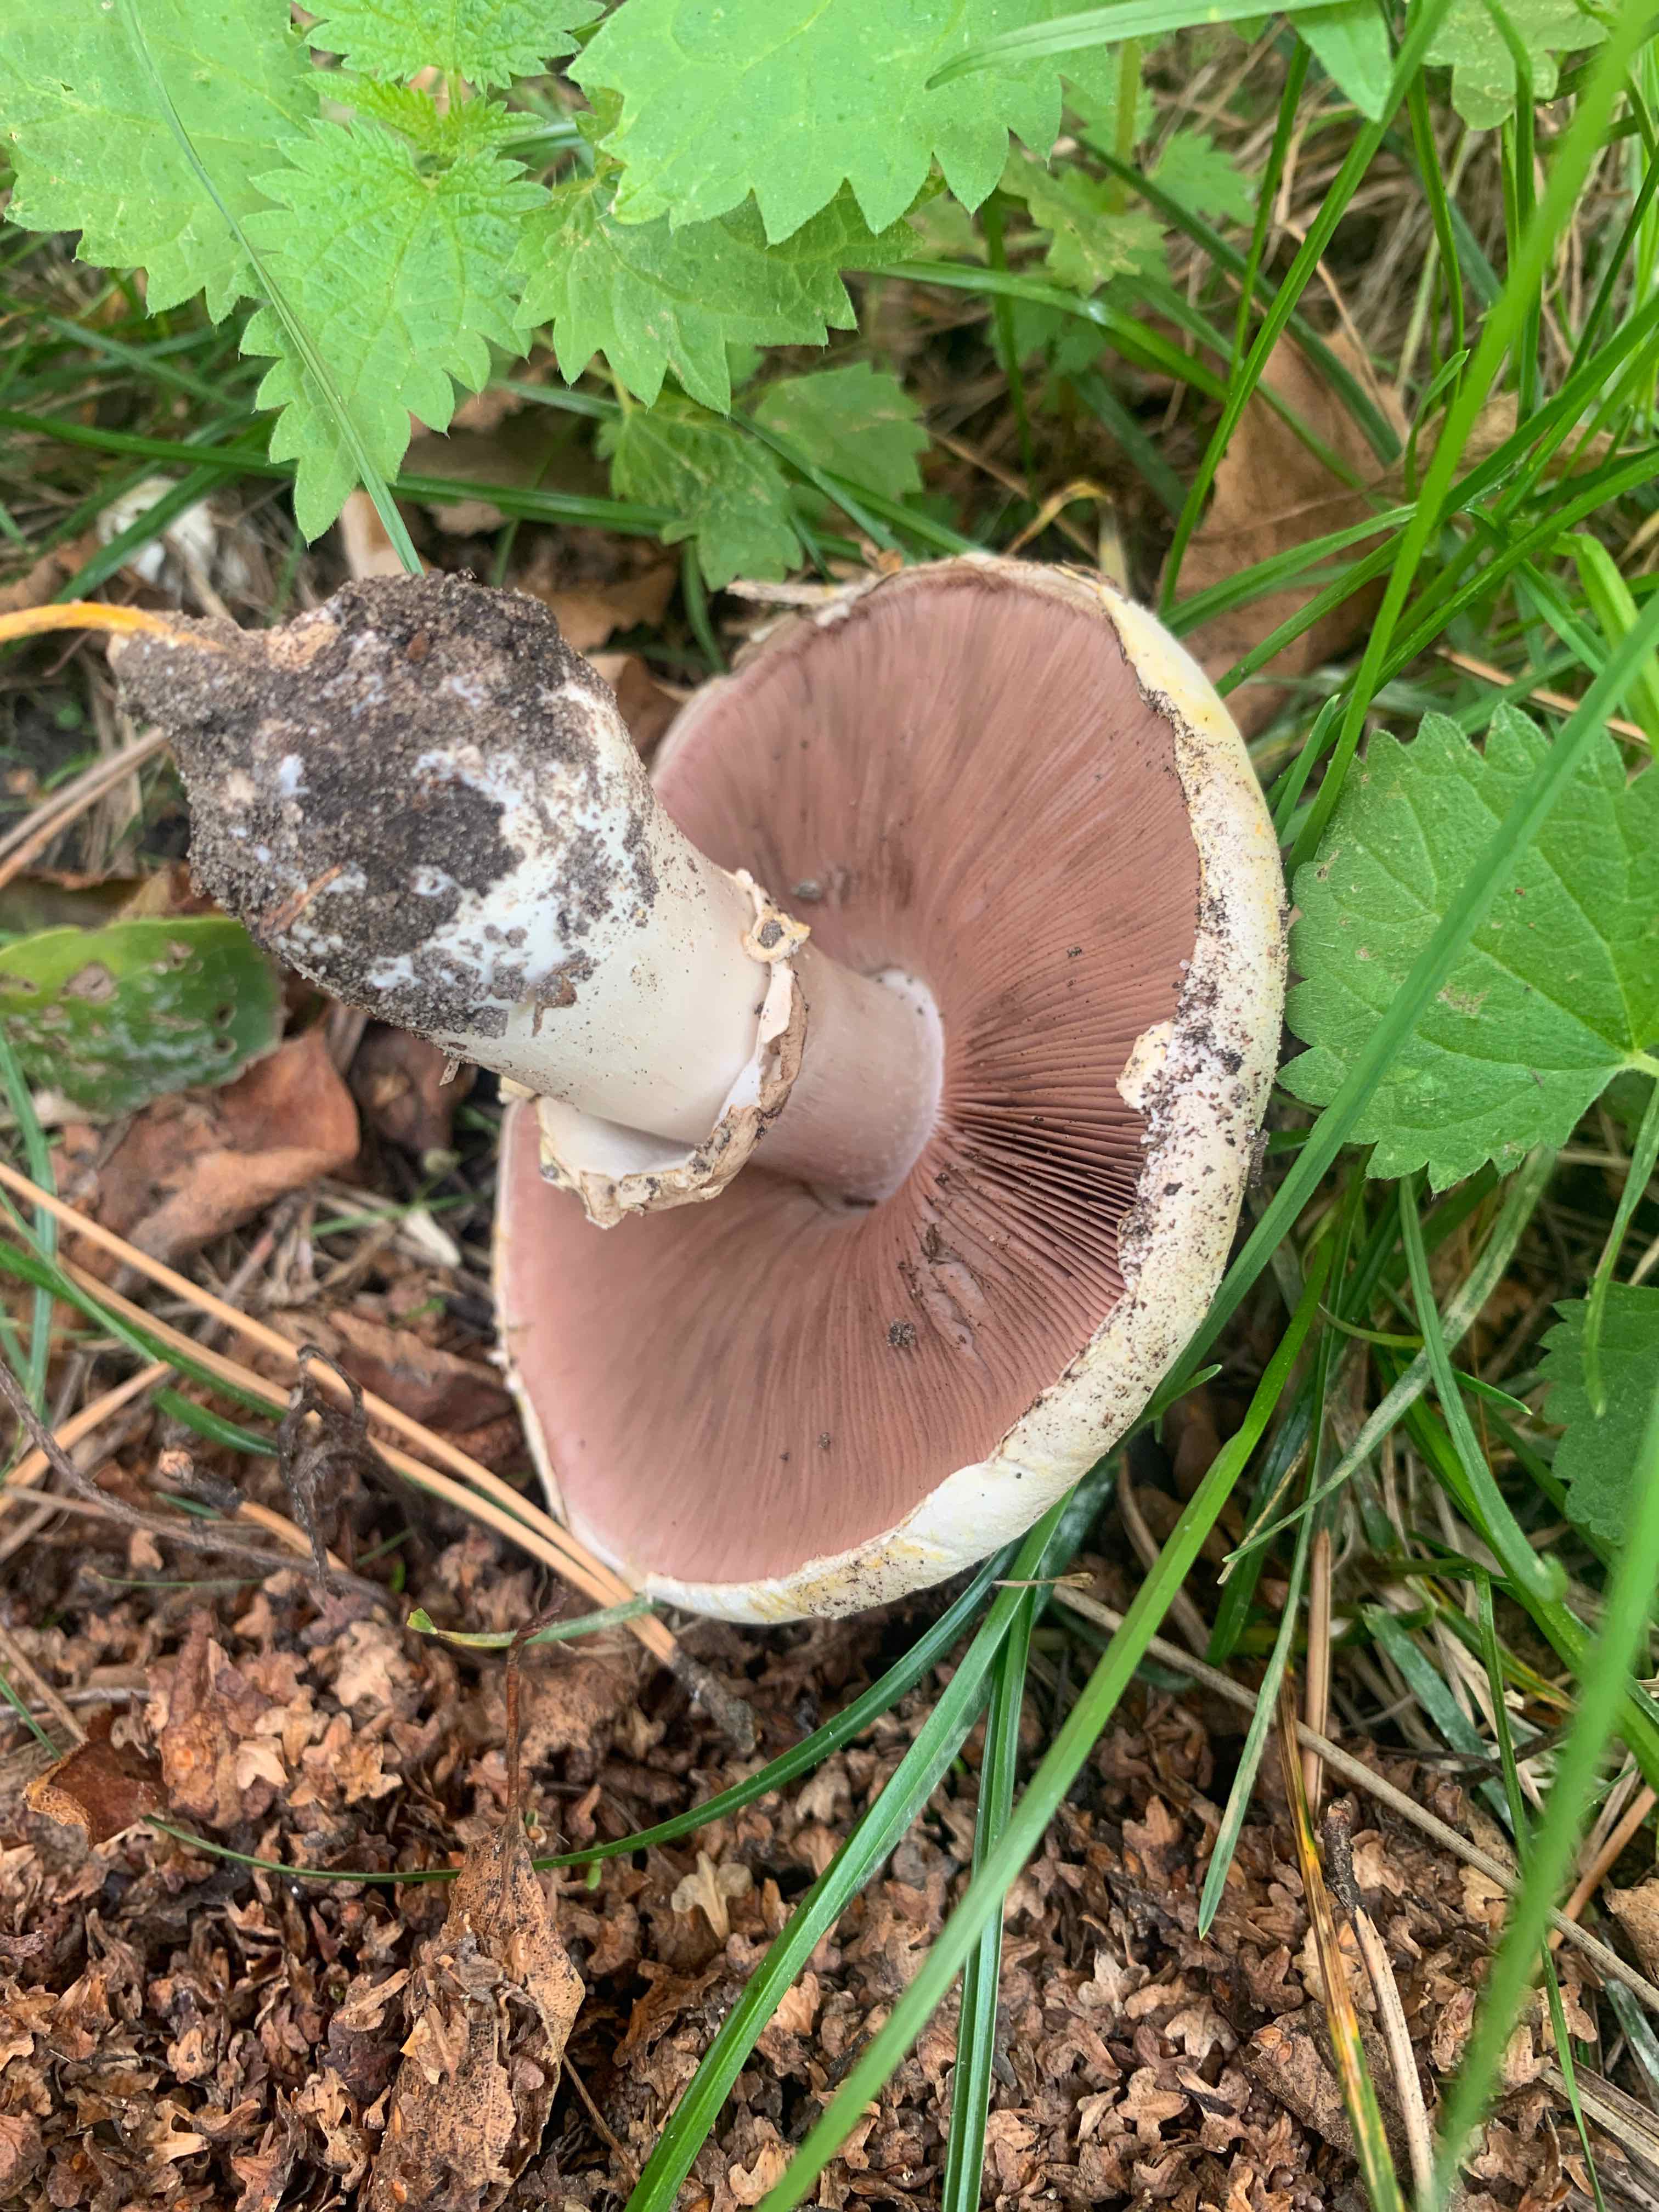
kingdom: Fungi
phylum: Basidiomycota
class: Agaricomycetes
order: Agaricales
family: Agaricaceae
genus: Agaricus
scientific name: Agaricus xanthodermus
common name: karbol-champignon
